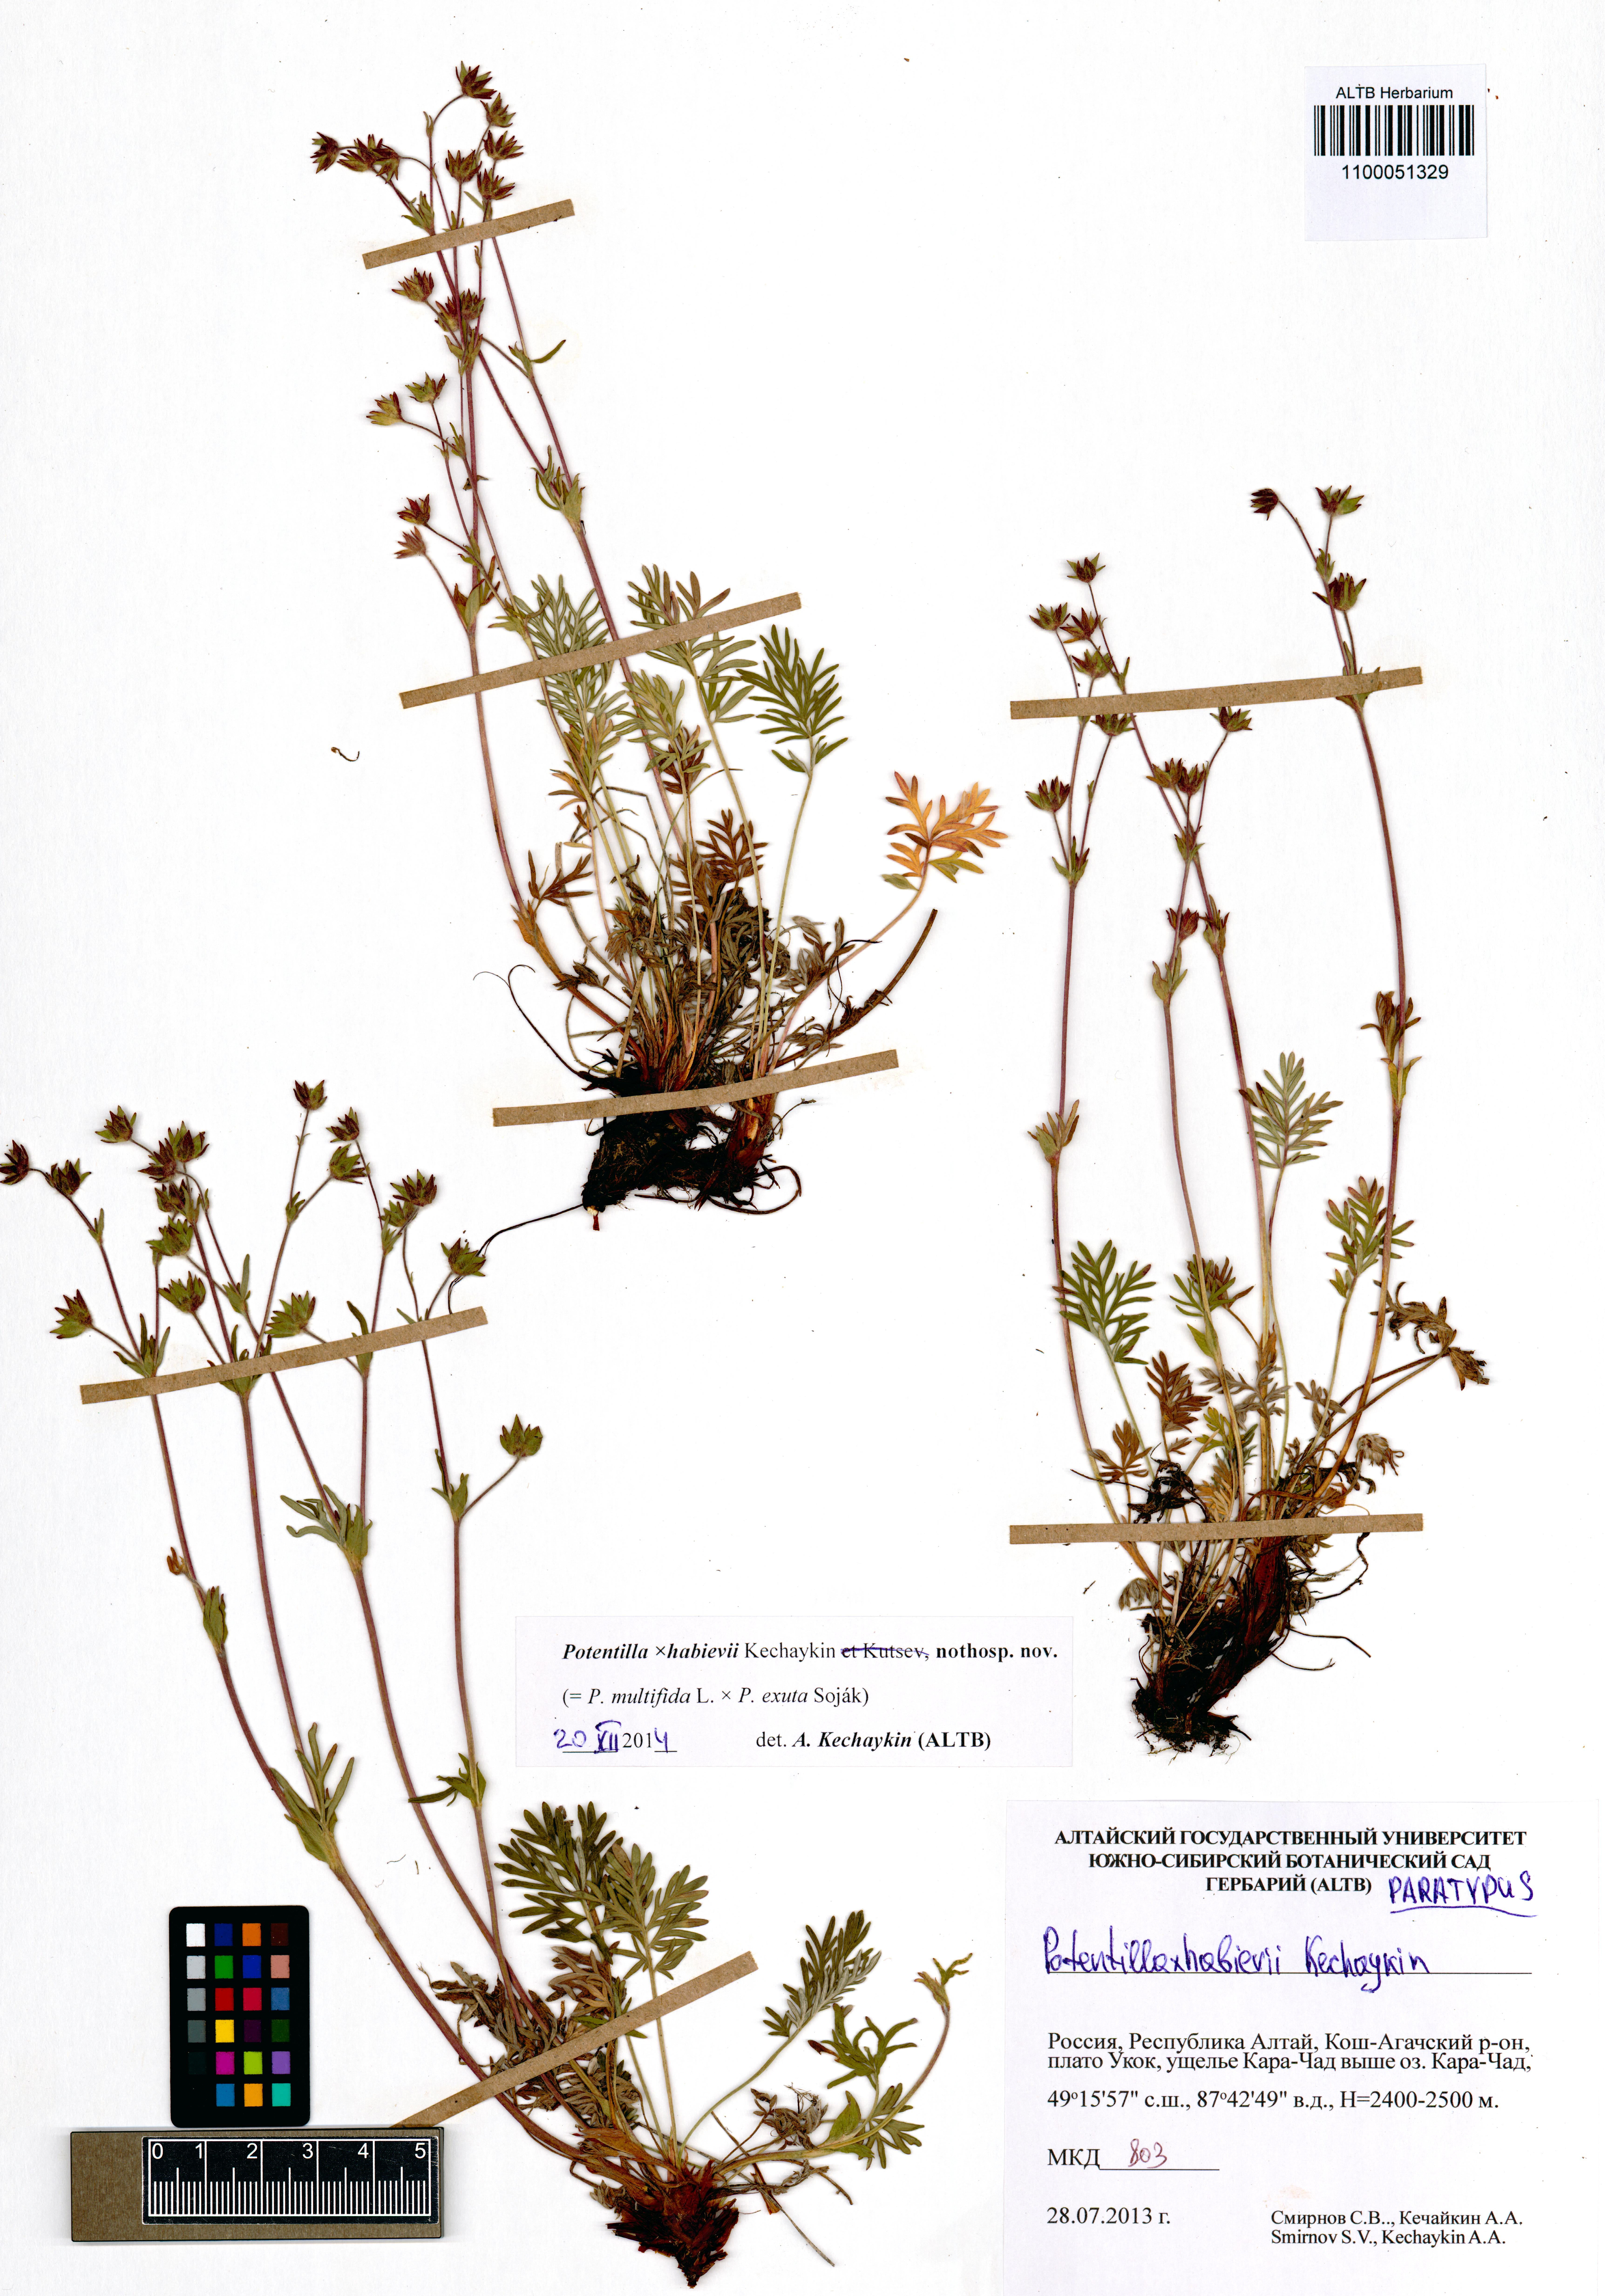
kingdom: Plantae
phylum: Tracheophyta
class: Magnoliopsida
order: Rosales
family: Rosaceae
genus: Potentilla
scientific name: Potentilla habievii
